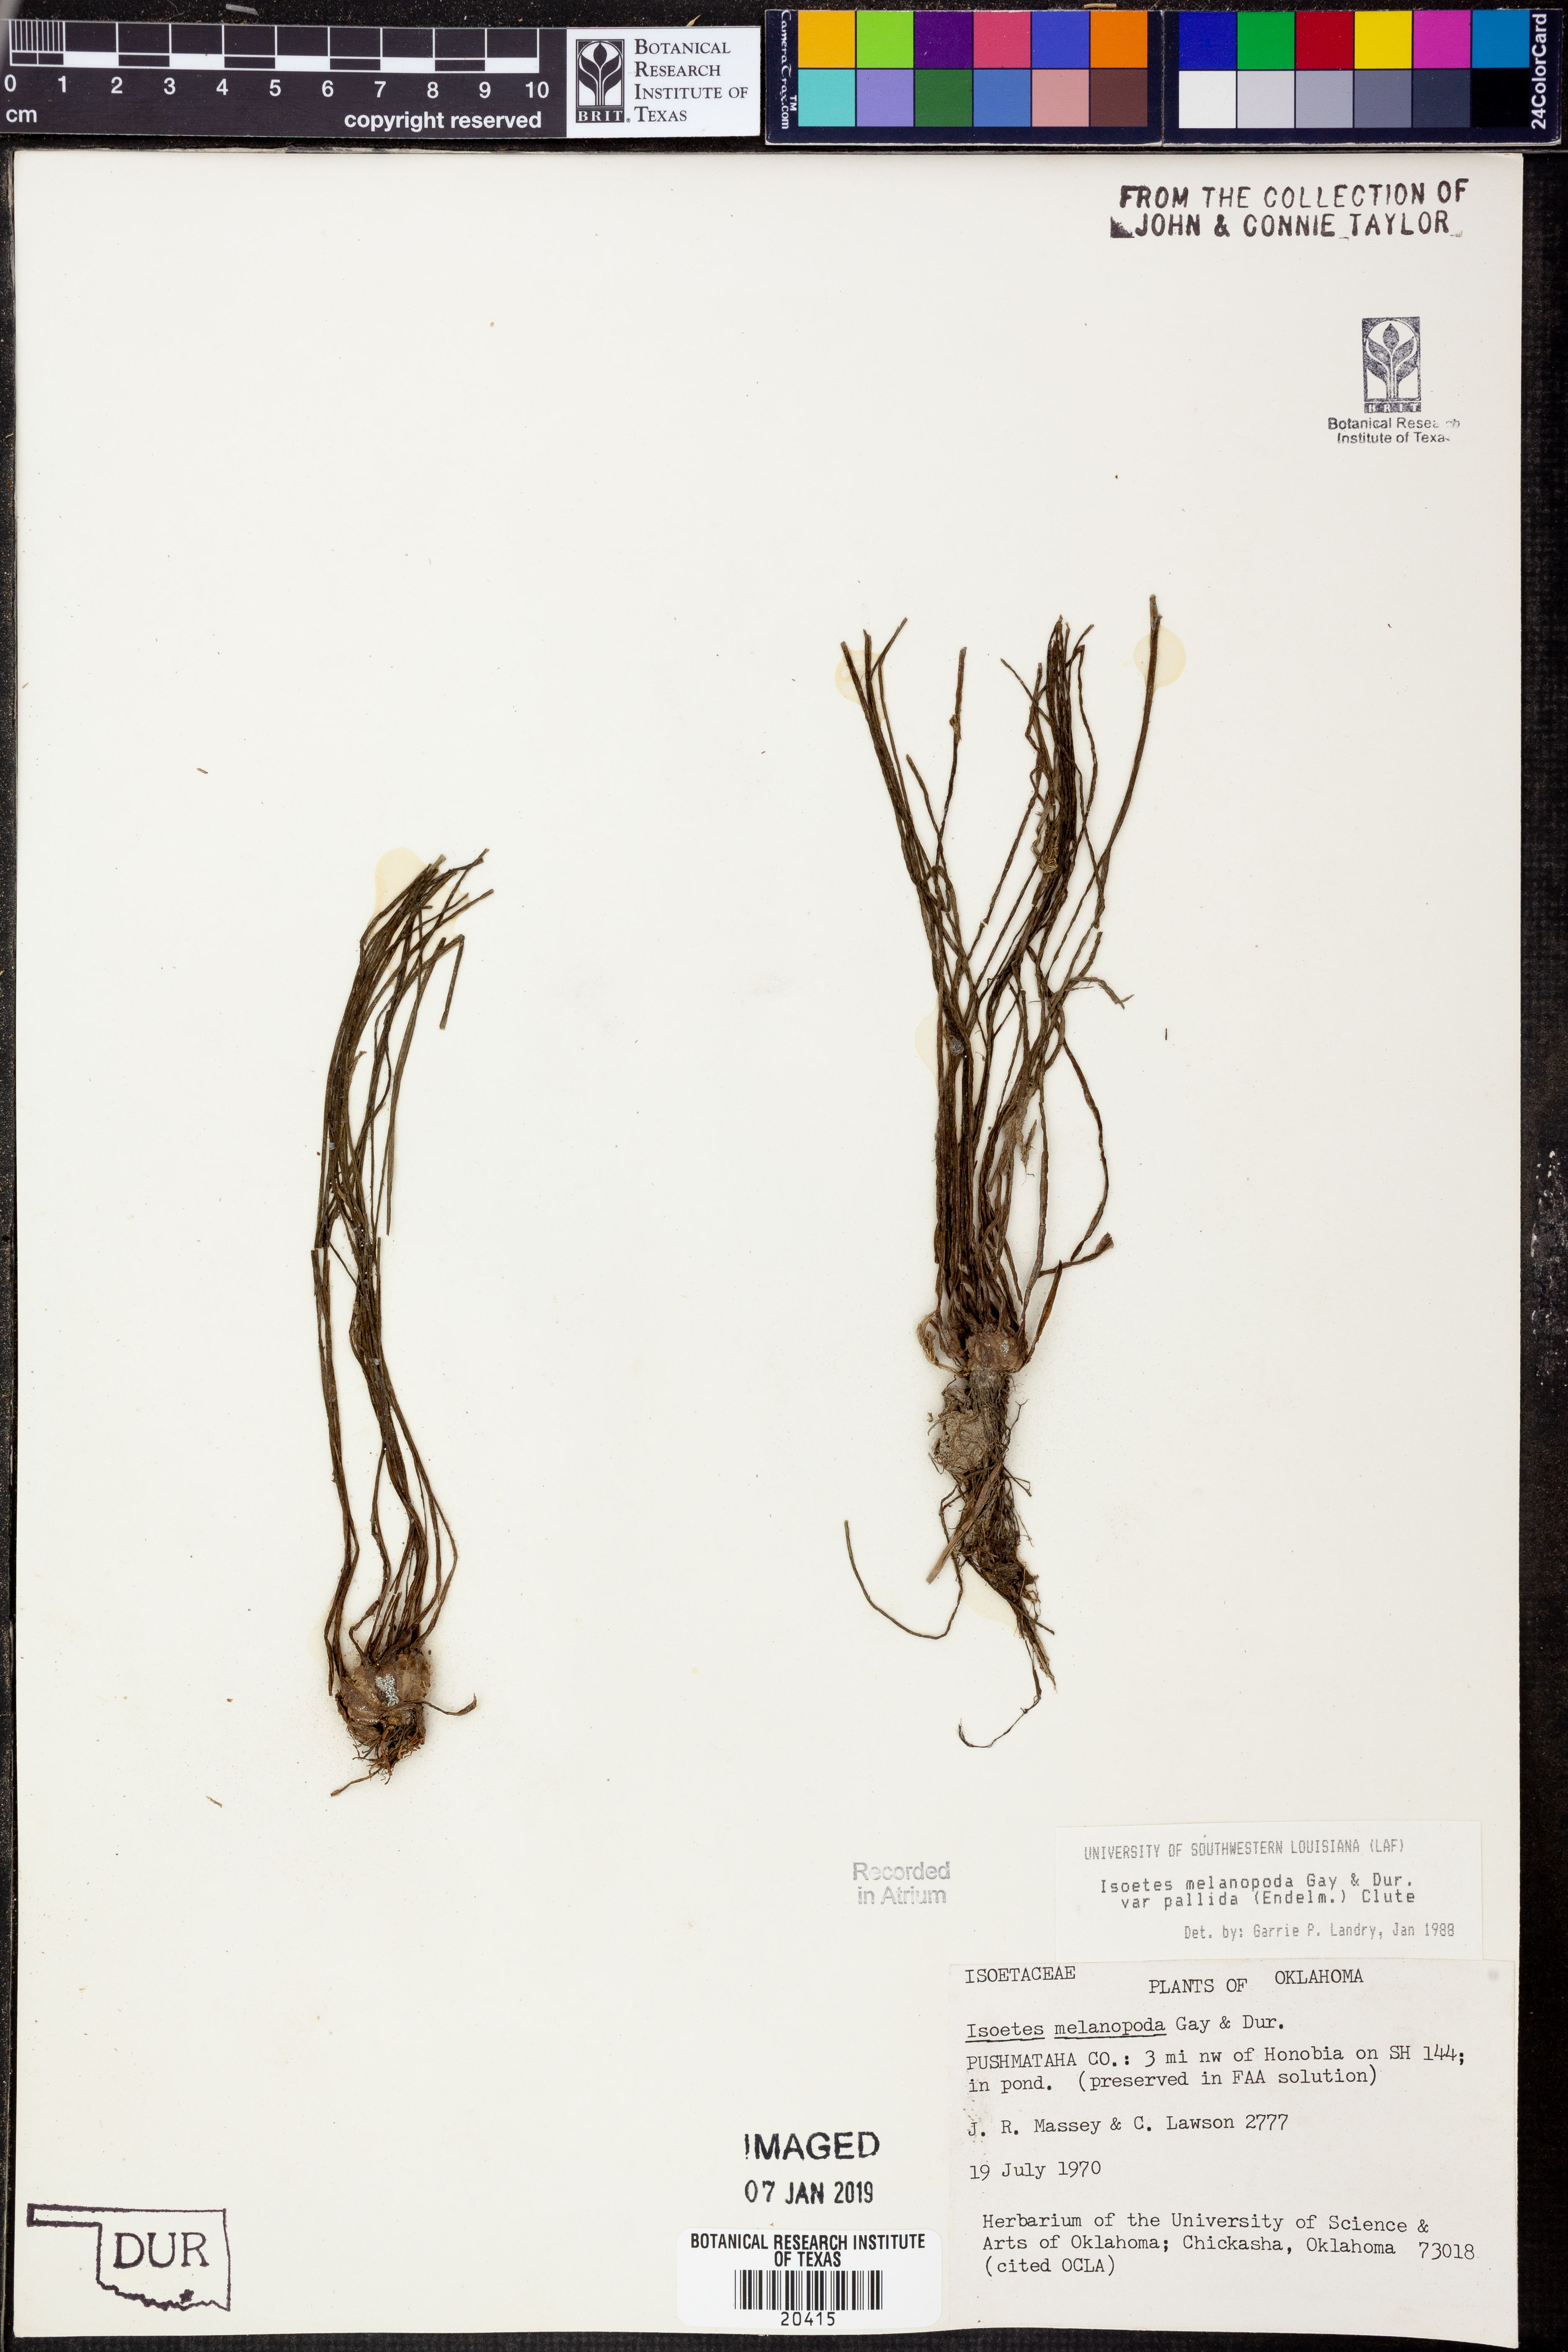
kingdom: Plantae
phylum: Tracheophyta
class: Lycopodiopsida
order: Isoetales
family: Isoetaceae
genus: Isoetes
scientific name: Isoetes melanopoda
